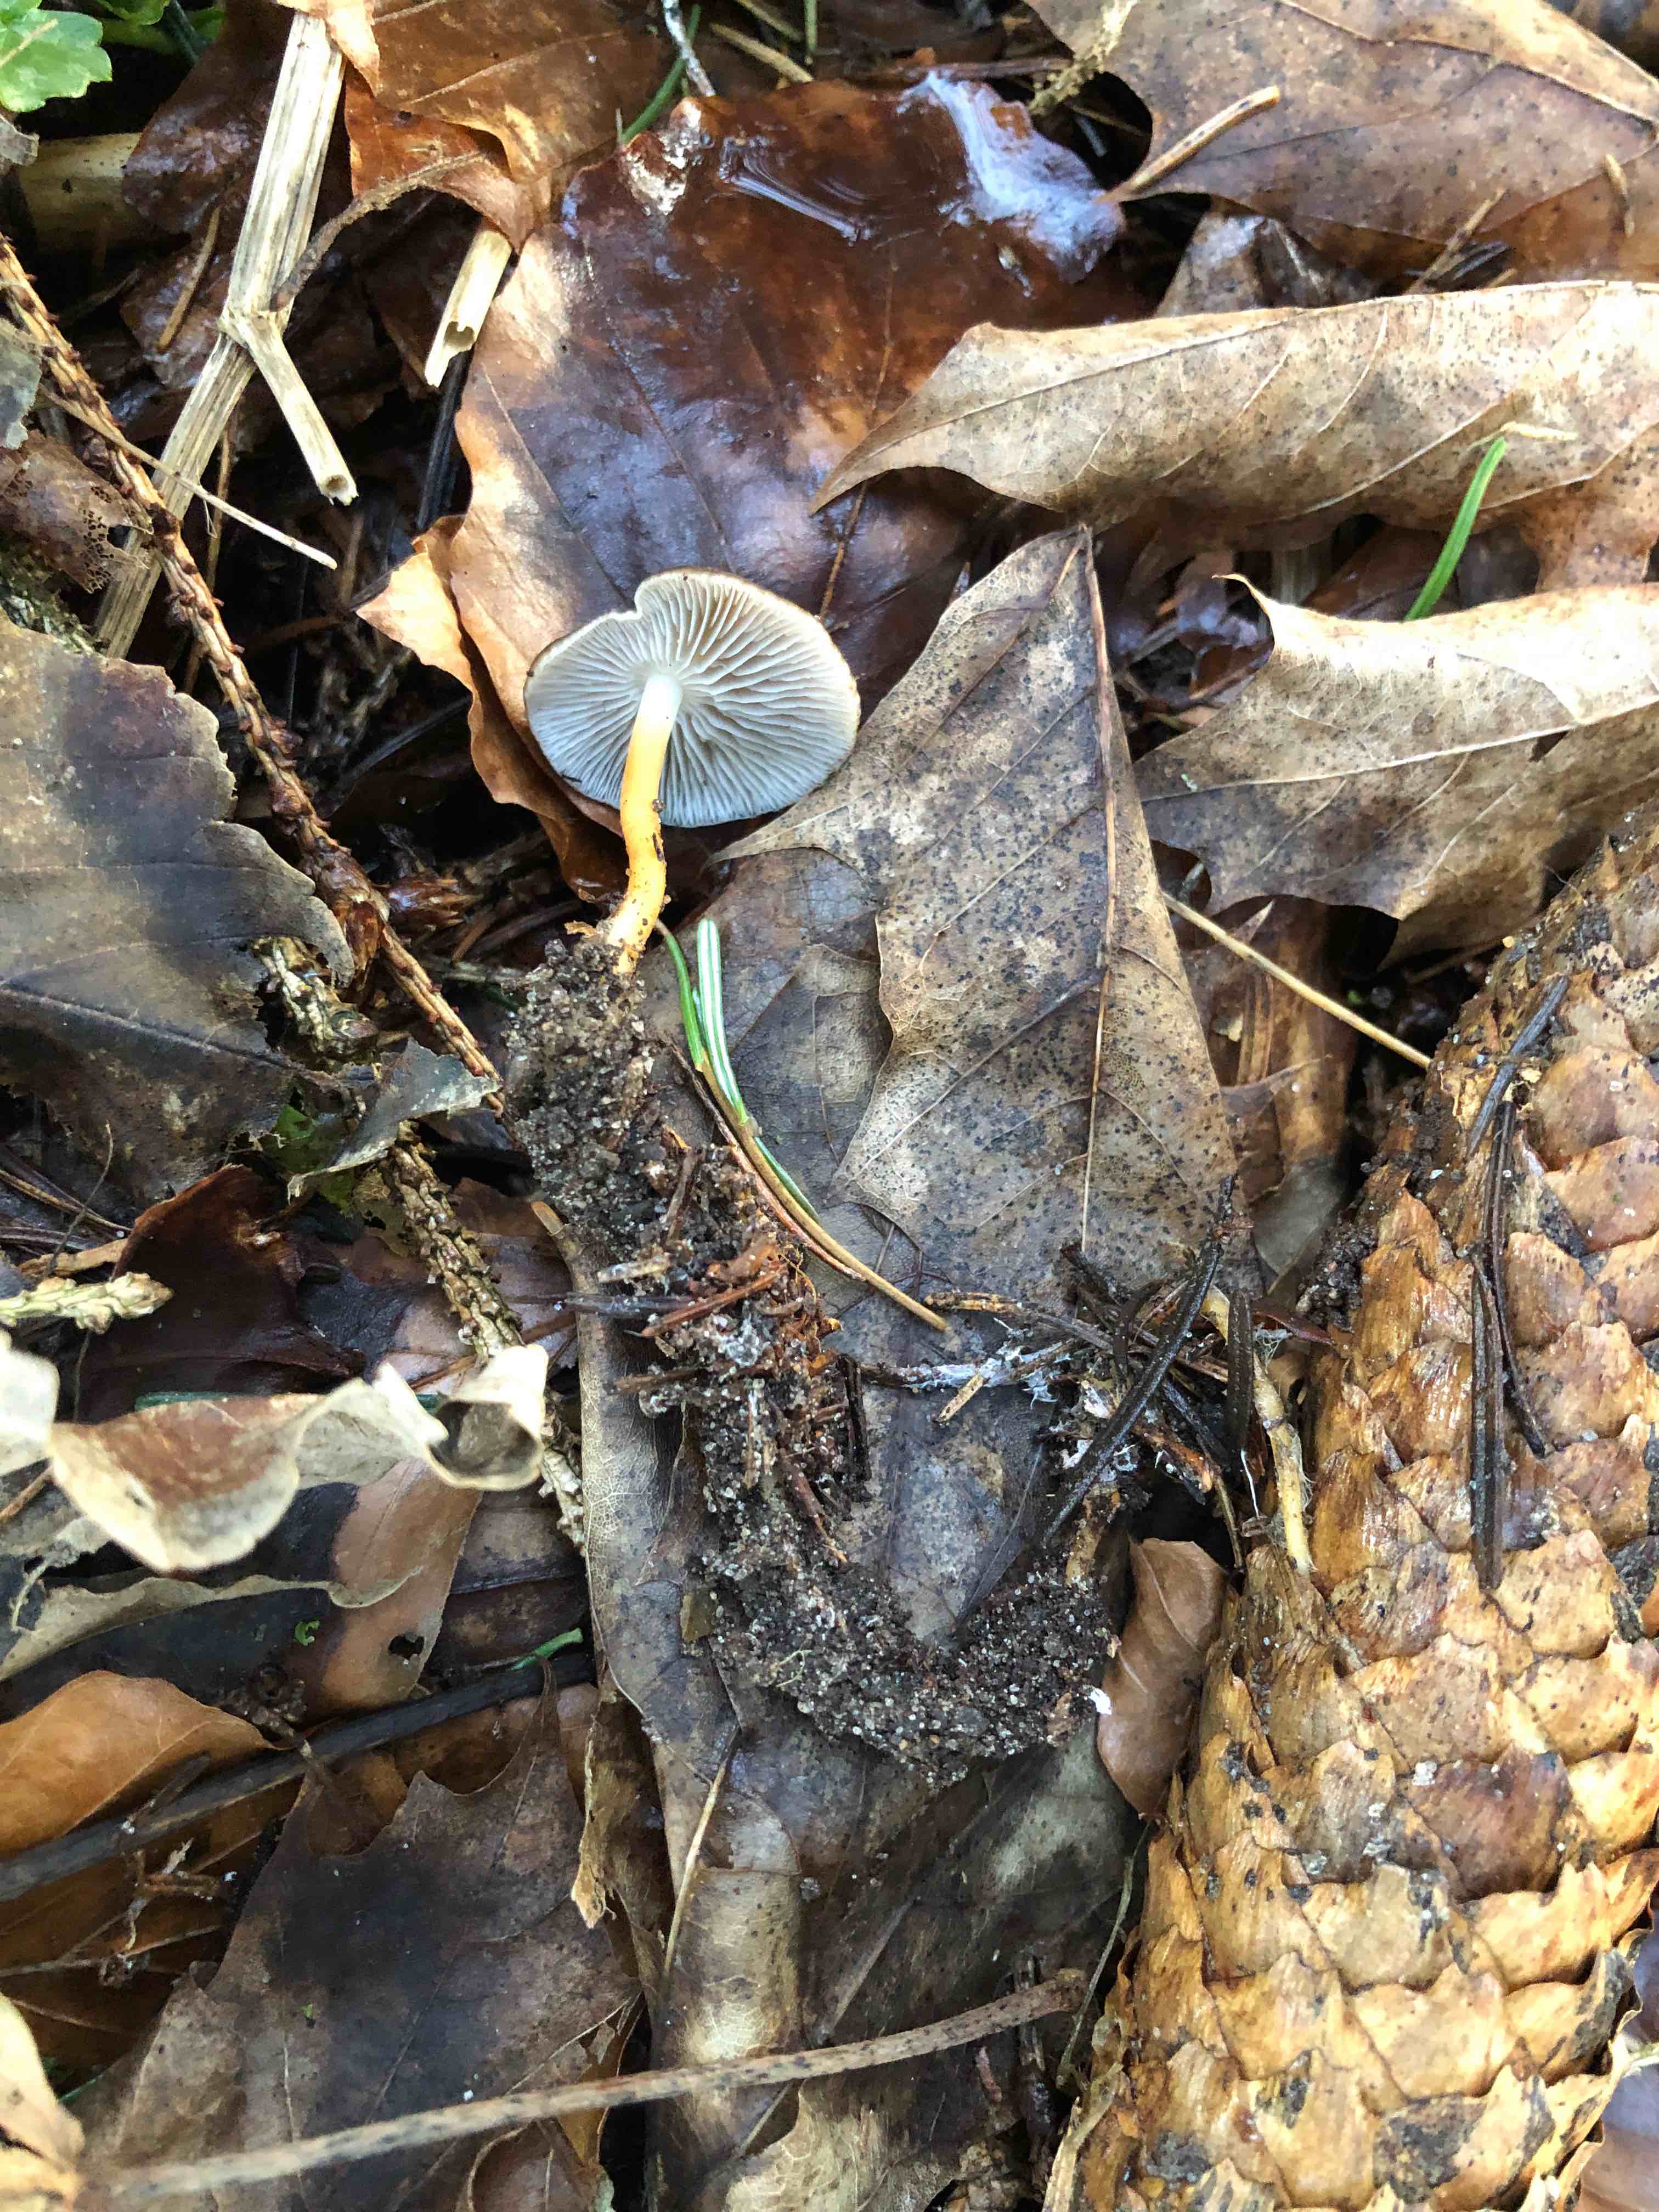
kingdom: Fungi
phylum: Basidiomycota
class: Agaricomycetes
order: Agaricales
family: Physalacriaceae
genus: Strobilurus
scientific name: Strobilurus esculentus
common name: gran-koglehat
